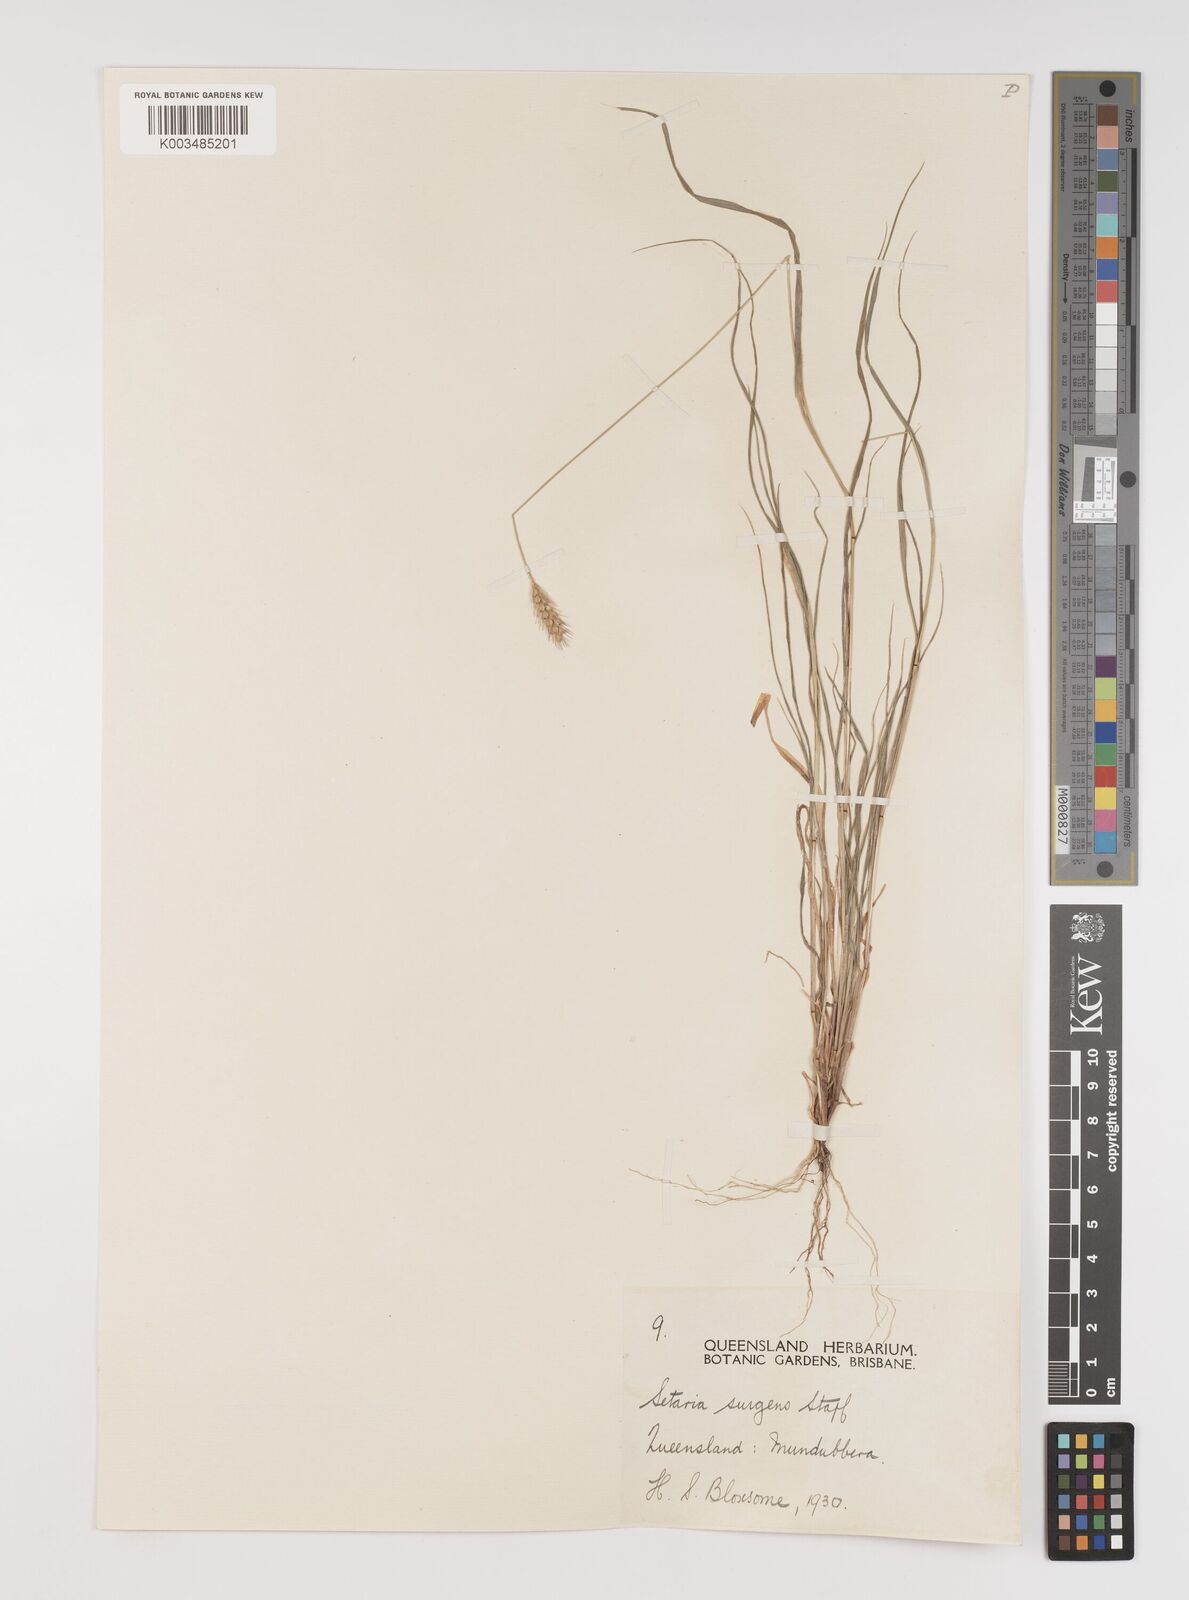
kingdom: Plantae
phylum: Tracheophyta
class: Liliopsida
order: Poales
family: Poaceae
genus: Setaria
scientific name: Setaria apiculata
